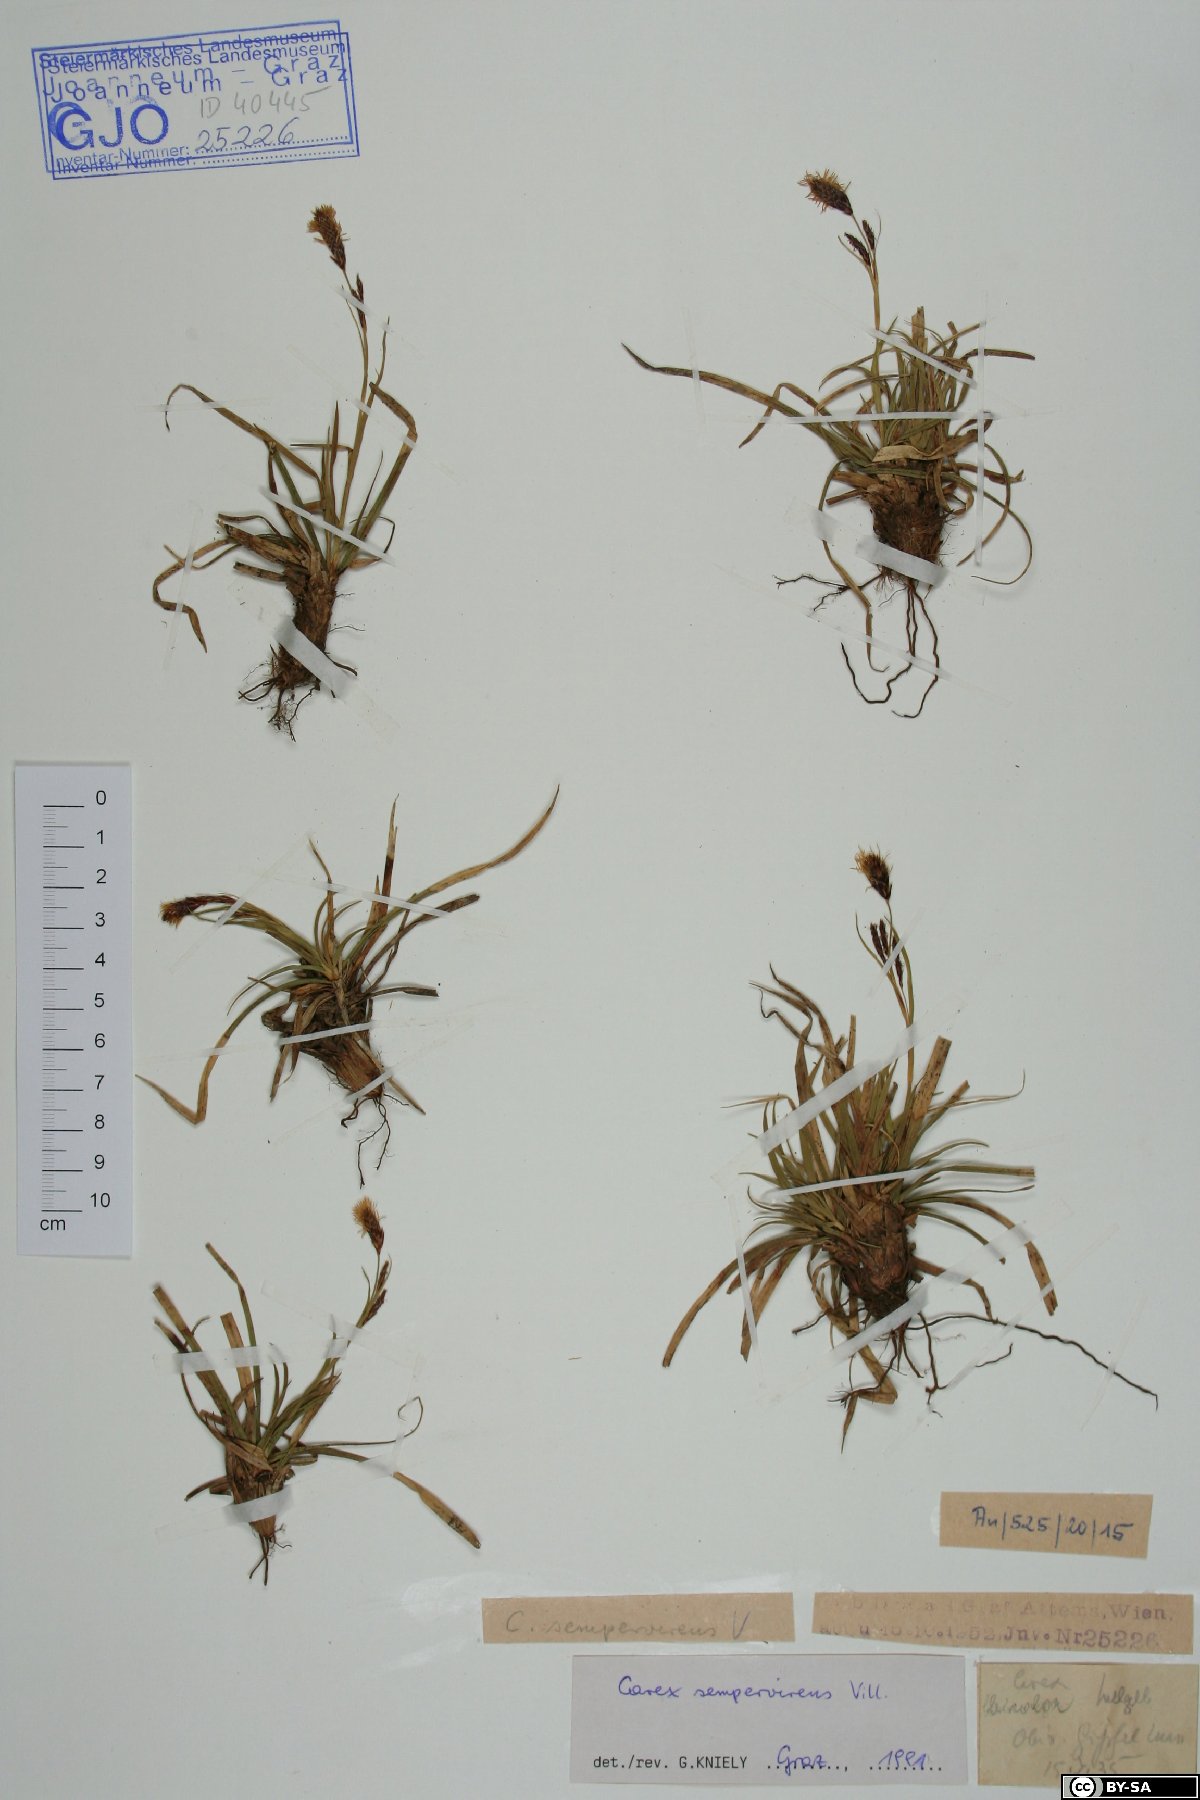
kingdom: Plantae
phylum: Tracheophyta
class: Liliopsida
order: Poales
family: Cyperaceae
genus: Carex
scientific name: Carex sempervirens
